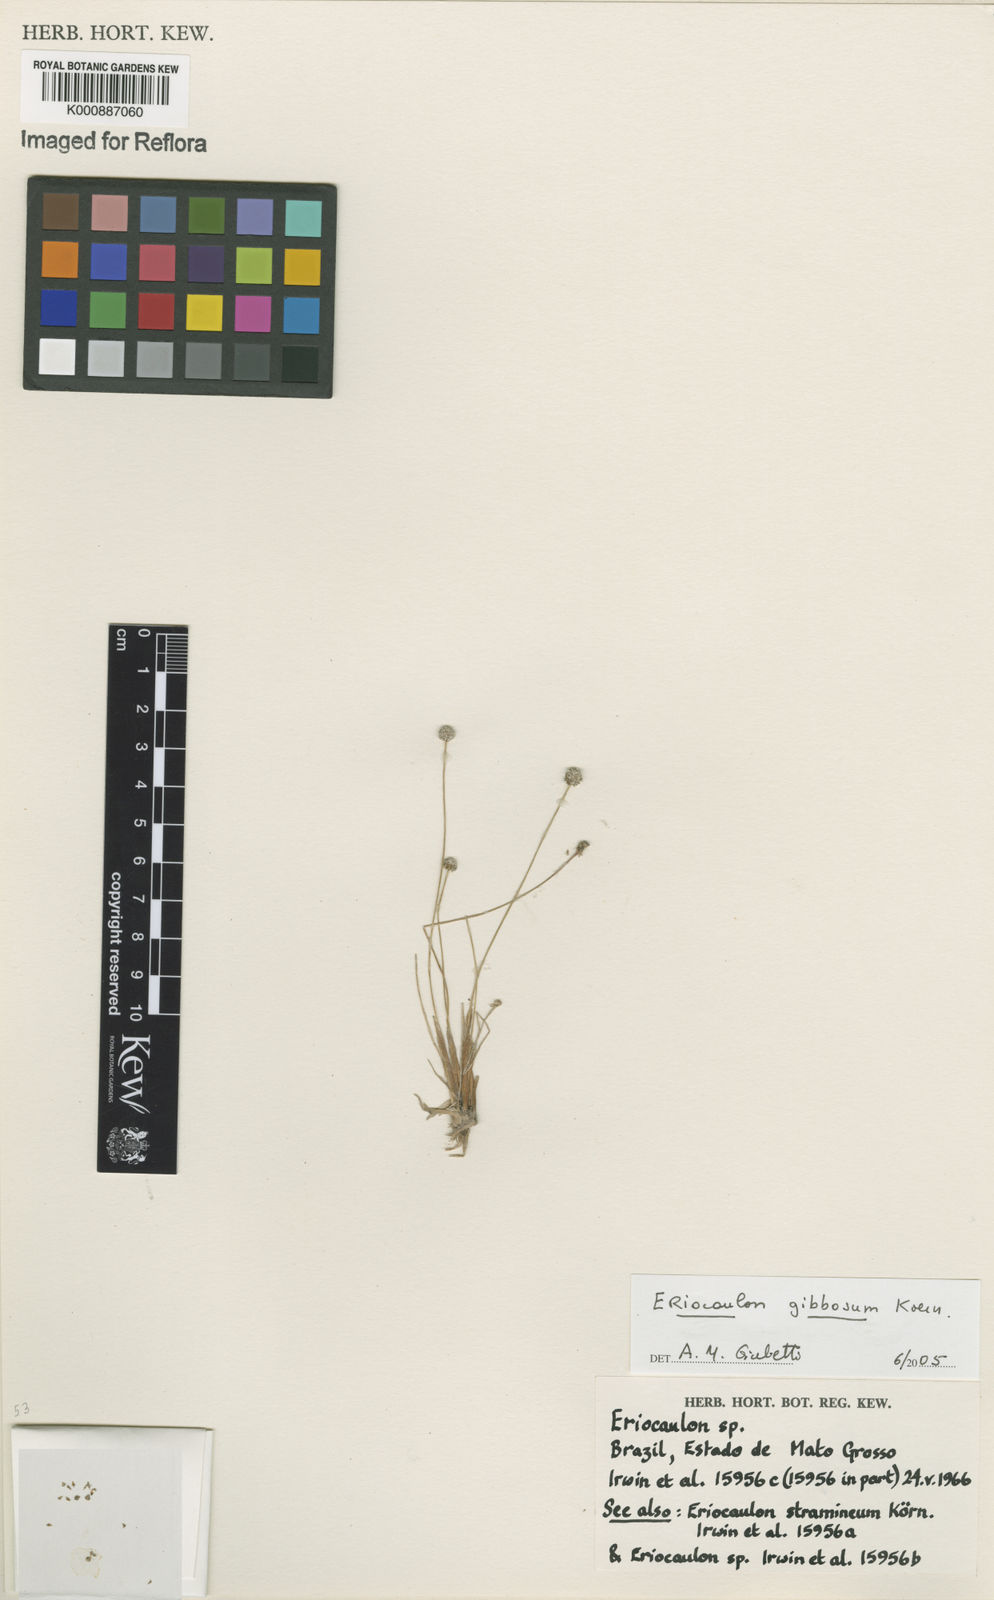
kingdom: Plantae
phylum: Tracheophyta
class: Liliopsida
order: Poales
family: Eriocaulaceae
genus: Eriocaulon
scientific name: Eriocaulon
